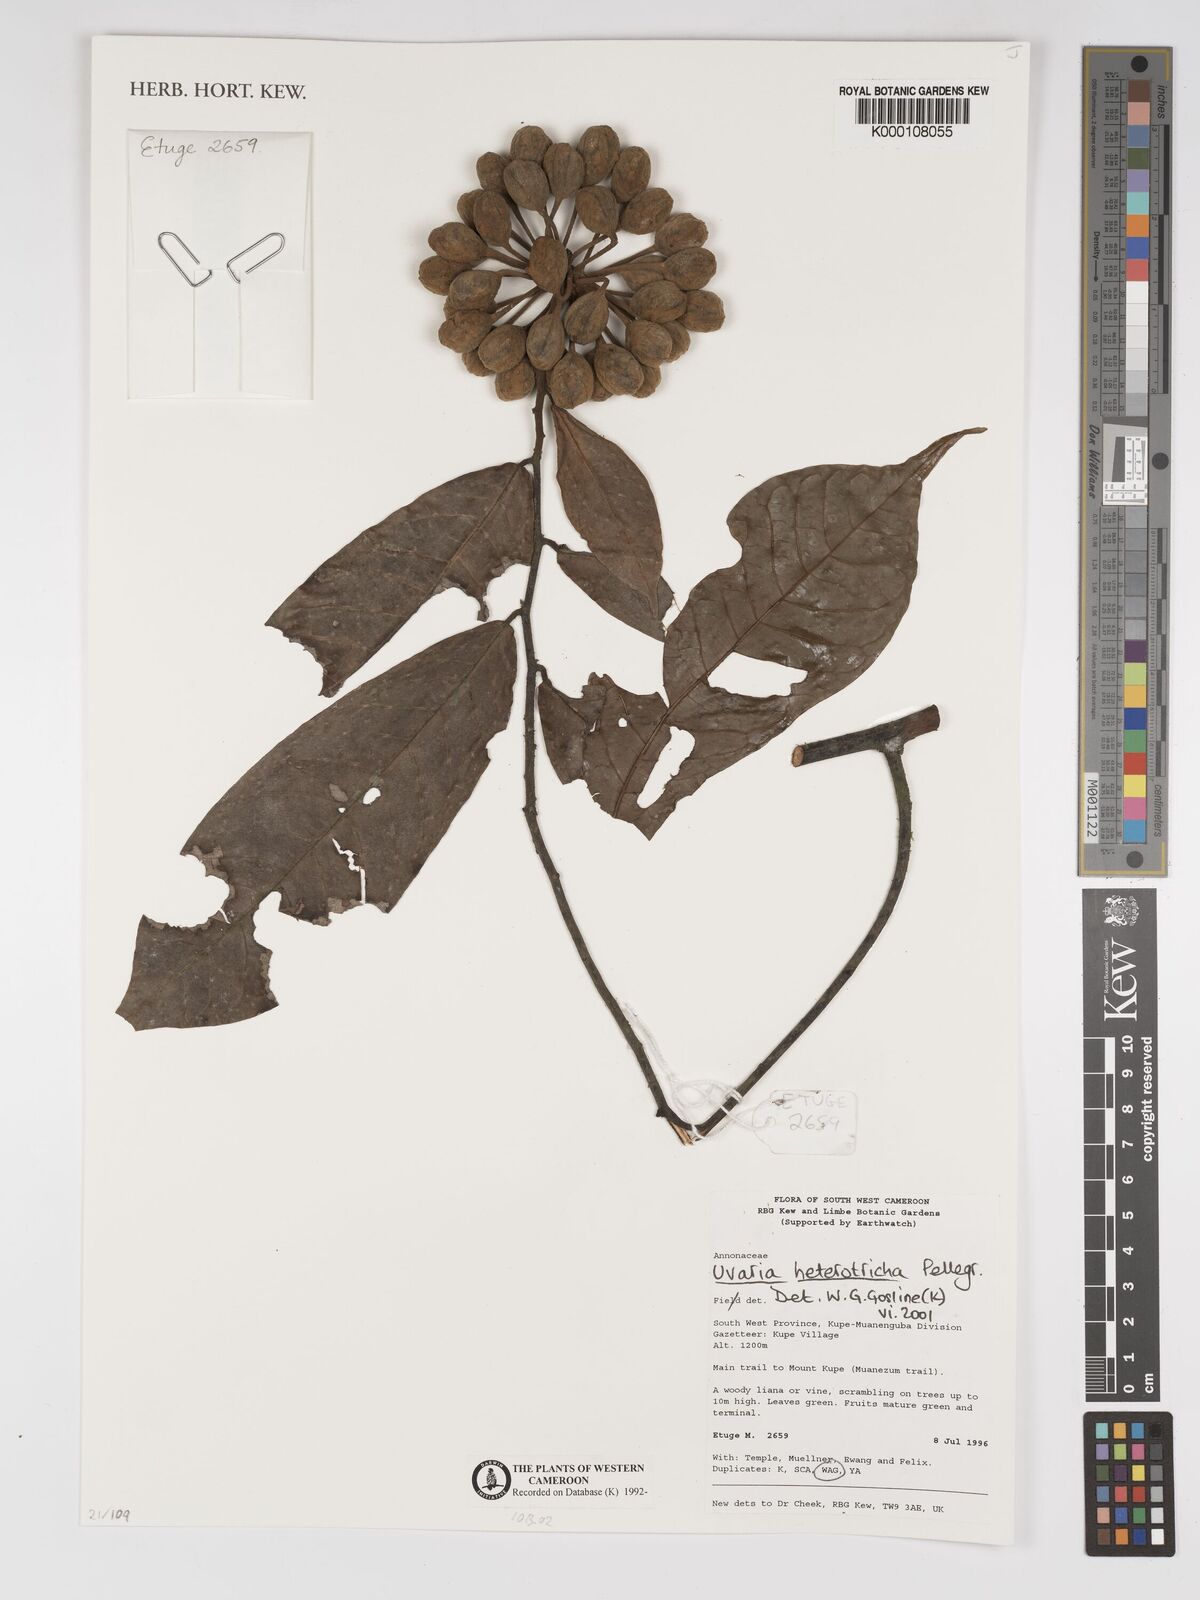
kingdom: Plantae
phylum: Tracheophyta
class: Magnoliopsida
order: Magnoliales
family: Annonaceae
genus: Uvaria
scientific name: Uvaria heterotricha
